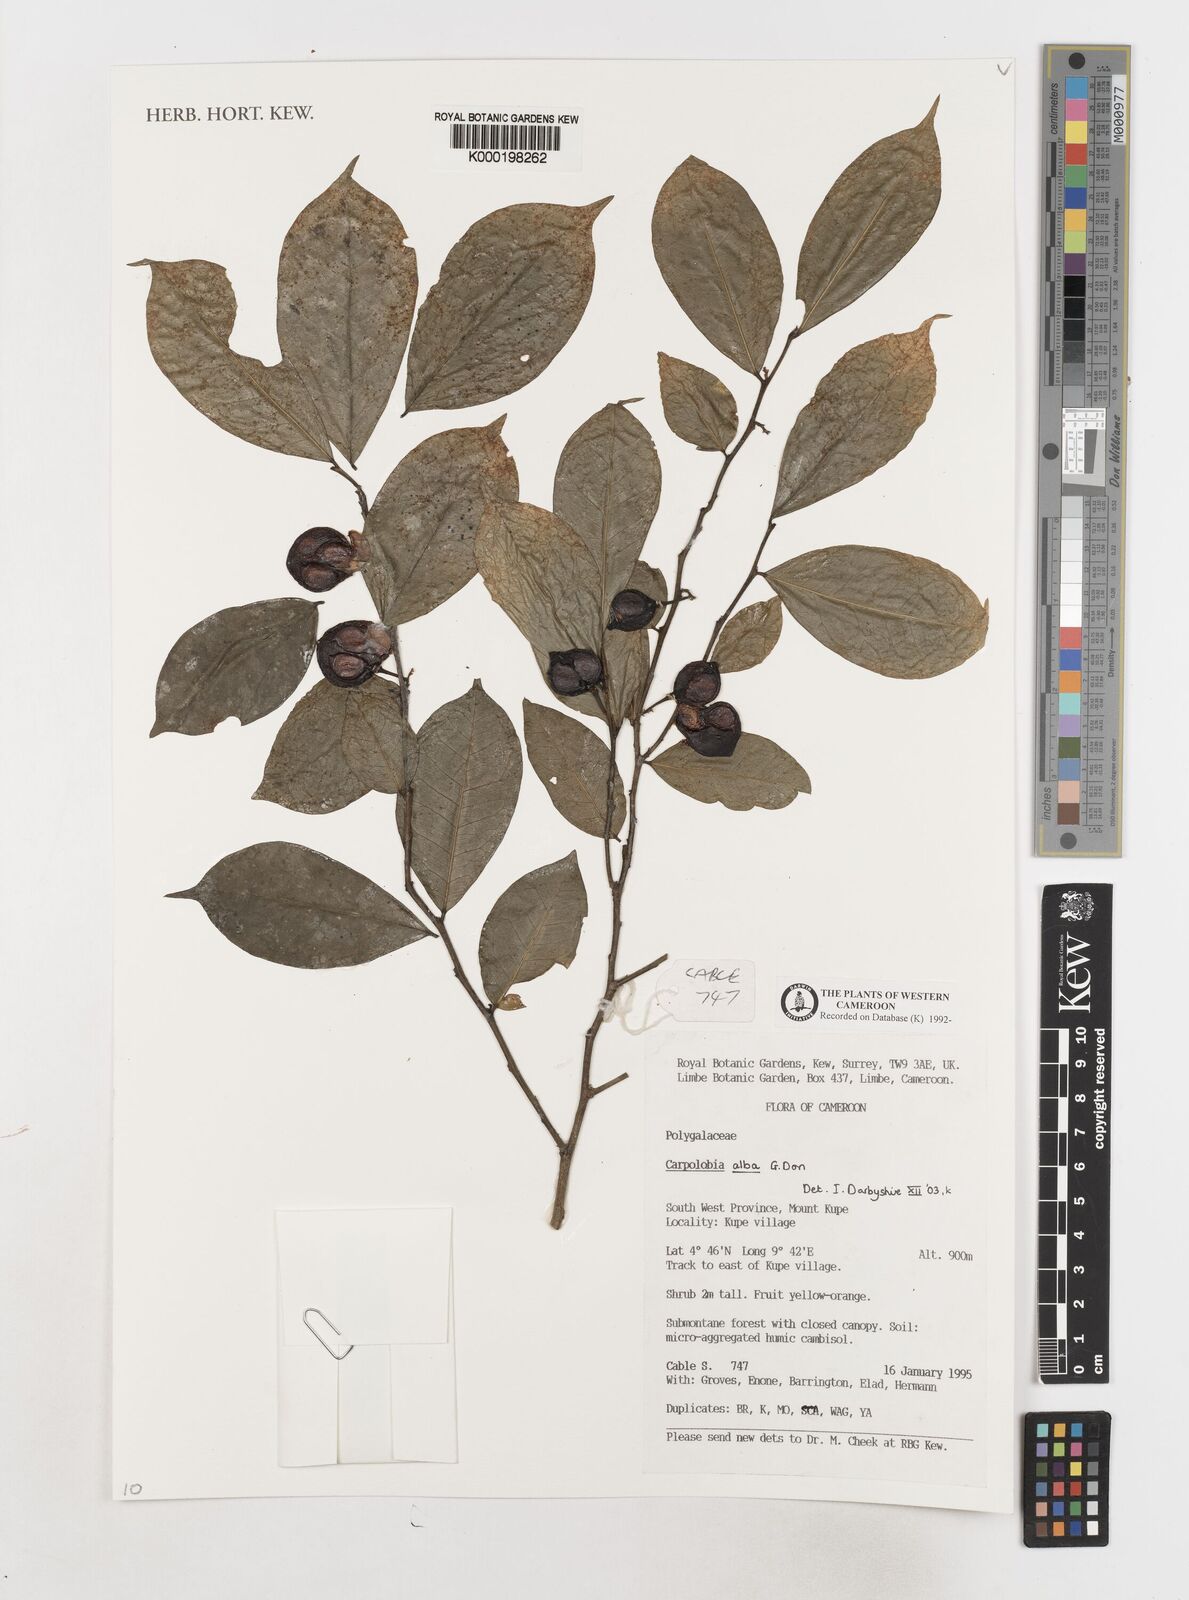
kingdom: Plantae
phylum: Tracheophyta
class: Magnoliopsida
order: Fabales
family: Polygalaceae
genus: Carpolobia
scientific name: Carpolobia alba
